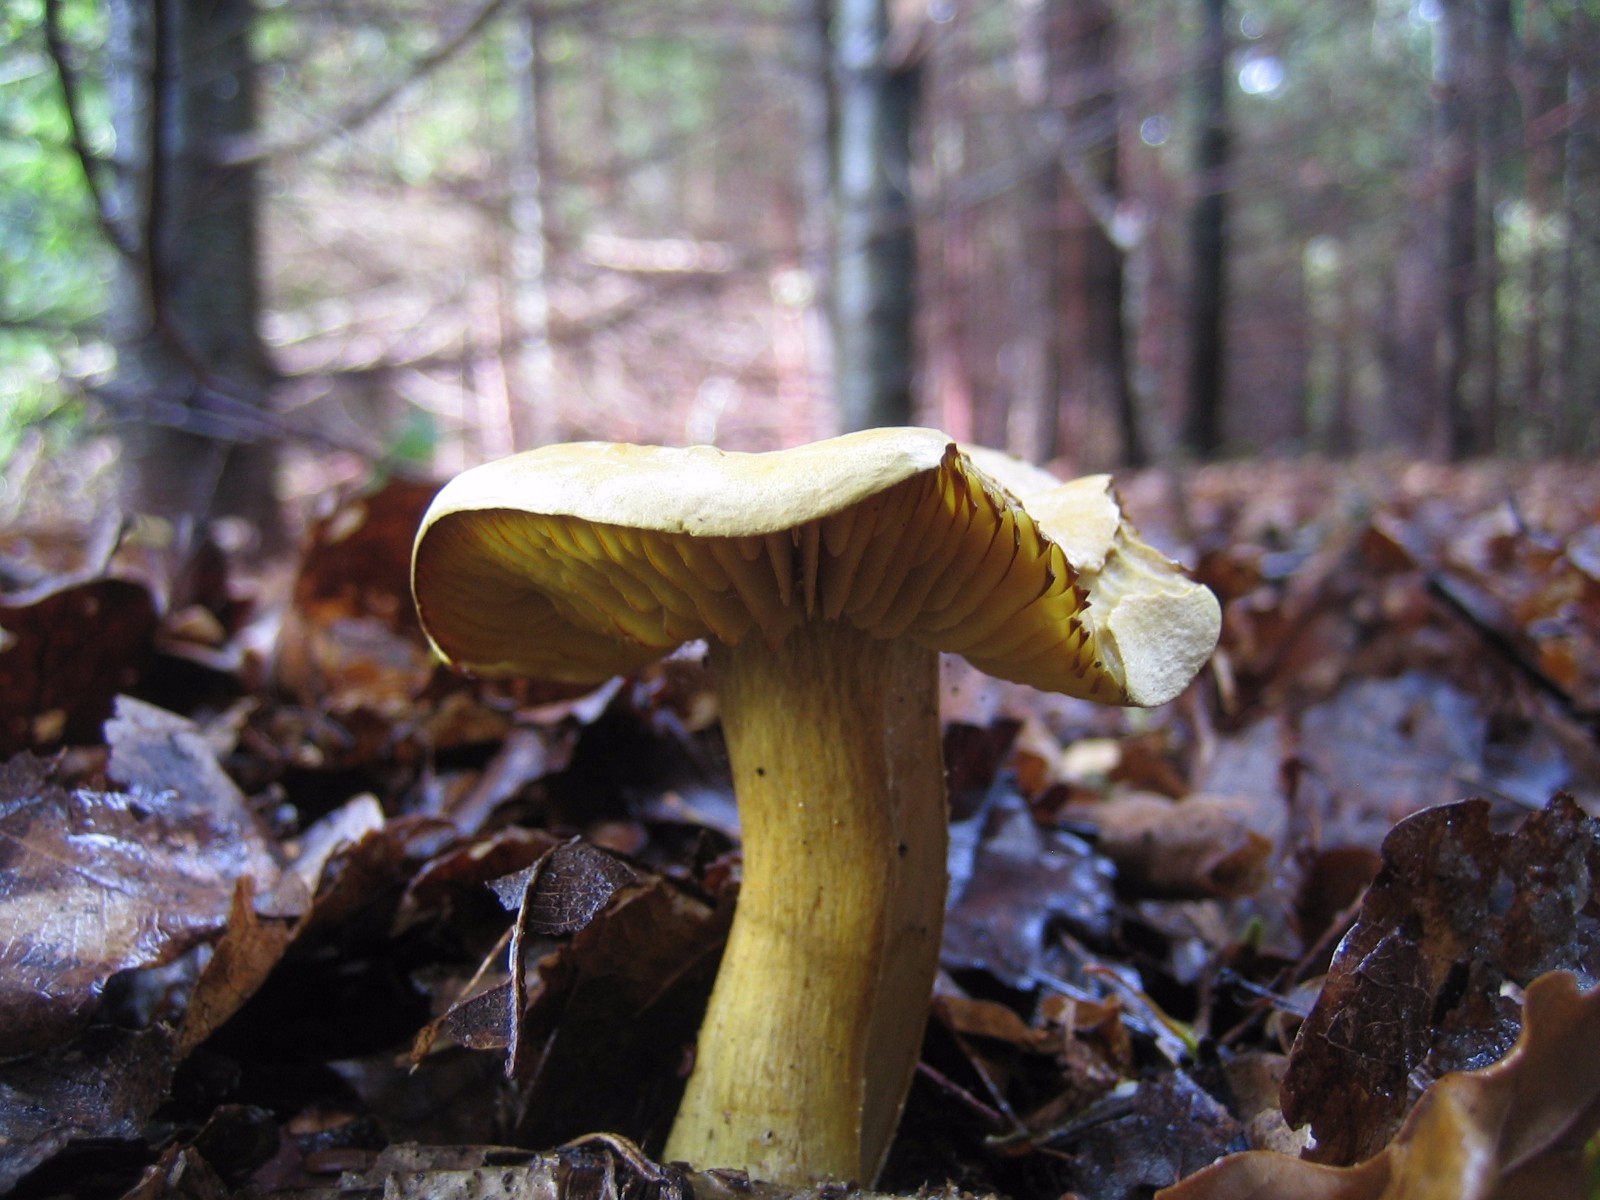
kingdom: Fungi
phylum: Basidiomycota
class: Agaricomycetes
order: Agaricales
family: Tricholomataceae
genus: Tricholoma
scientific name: Tricholoma sulphureum
